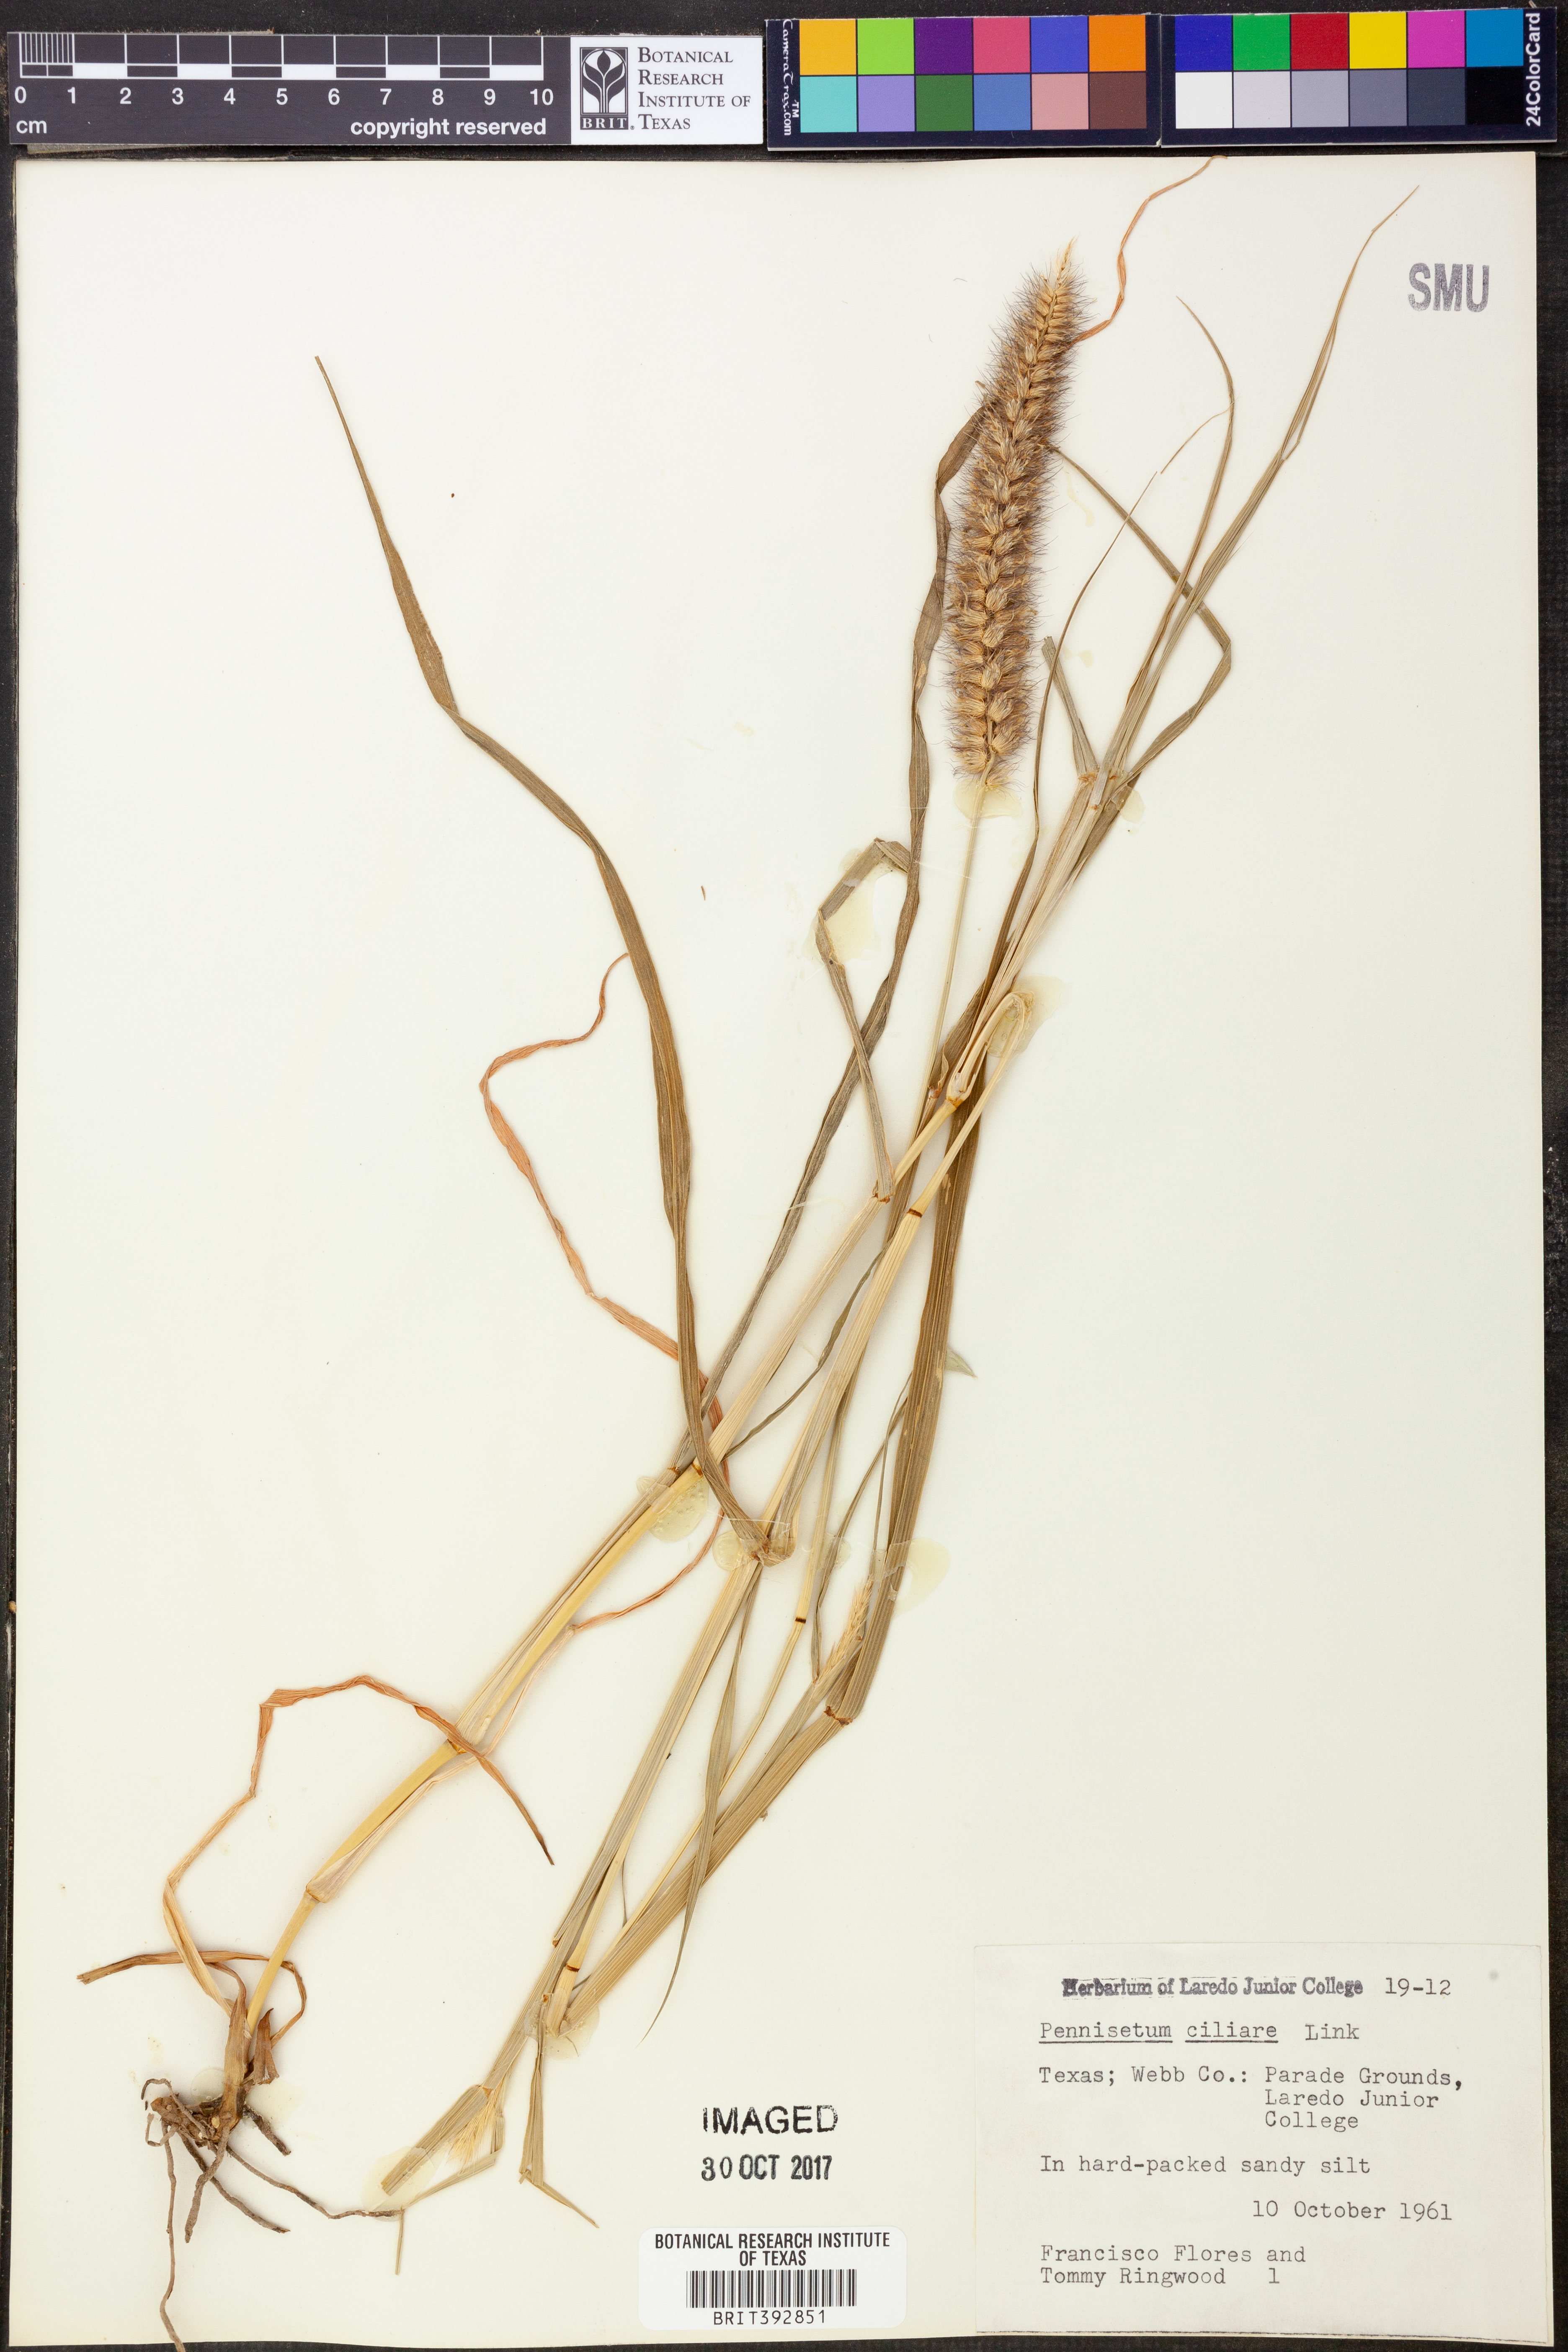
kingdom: Plantae
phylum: Tracheophyta
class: Liliopsida
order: Poales
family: Poaceae
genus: Cenchrus
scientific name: Cenchrus ciliaris
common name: Buffelgrass
